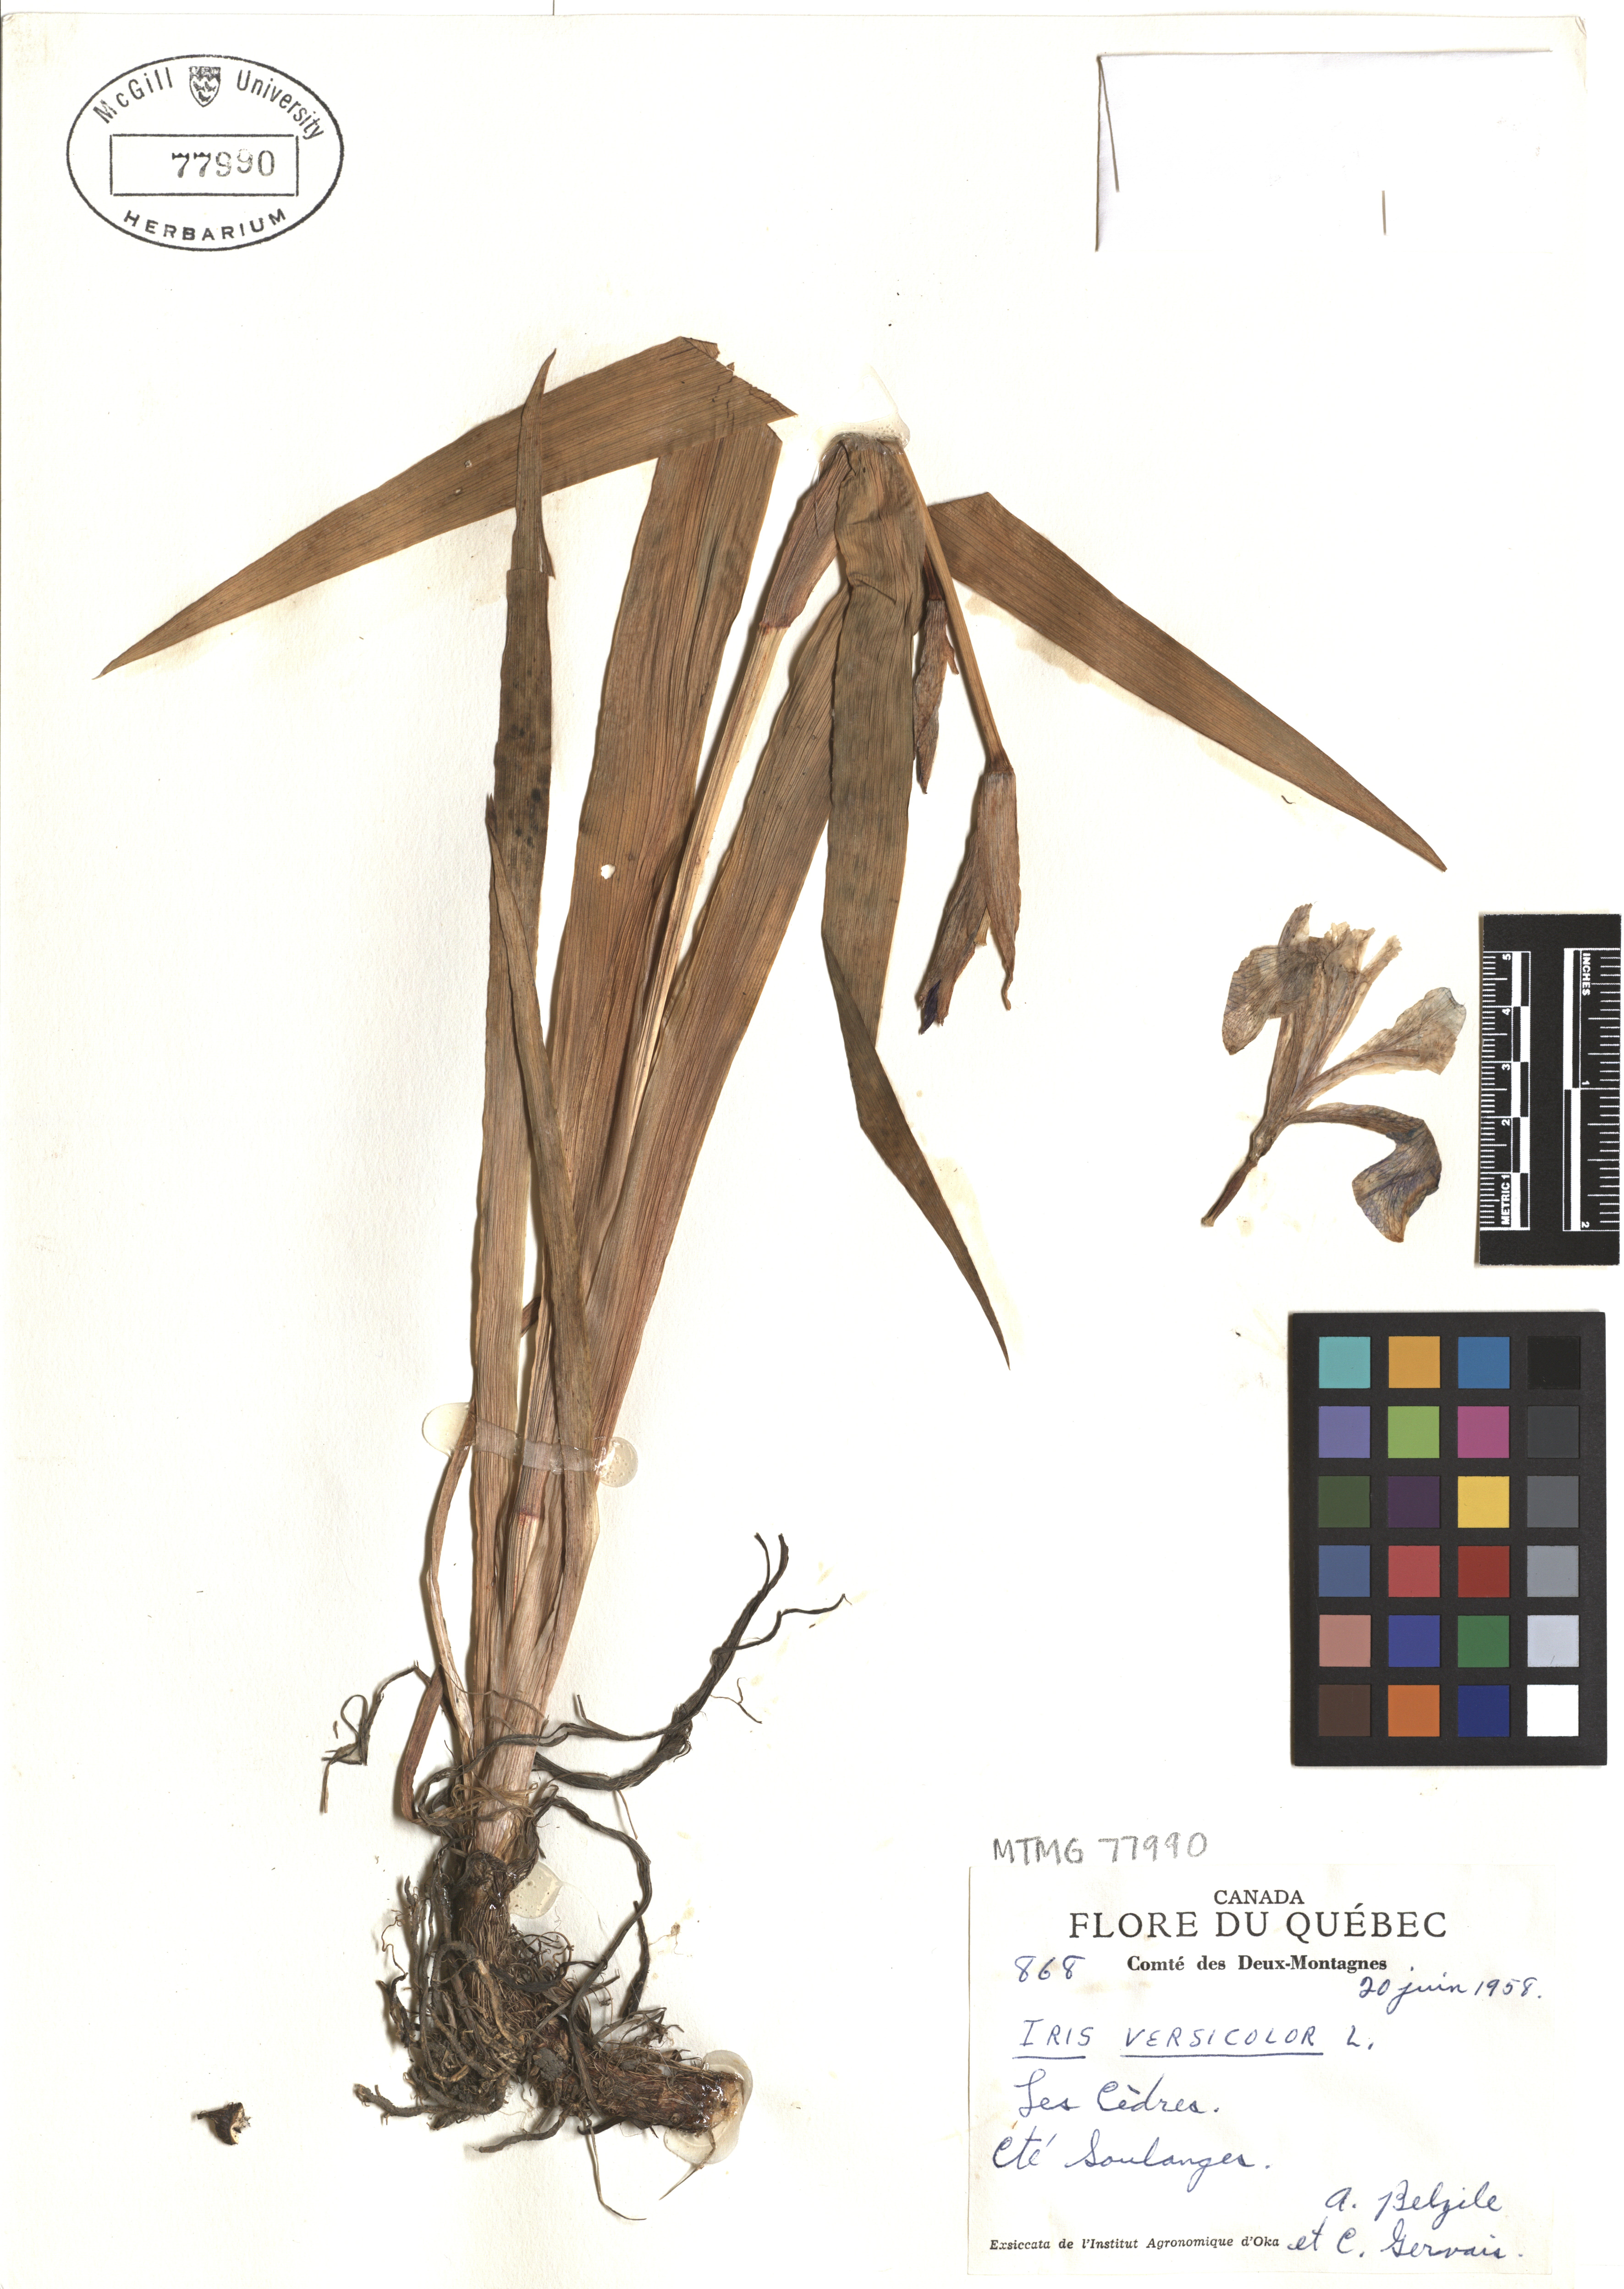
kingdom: Plantae
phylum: Tracheophyta
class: Liliopsida
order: Asparagales
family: Iridaceae
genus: Iris
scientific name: Iris versicolor
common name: Purple iris
